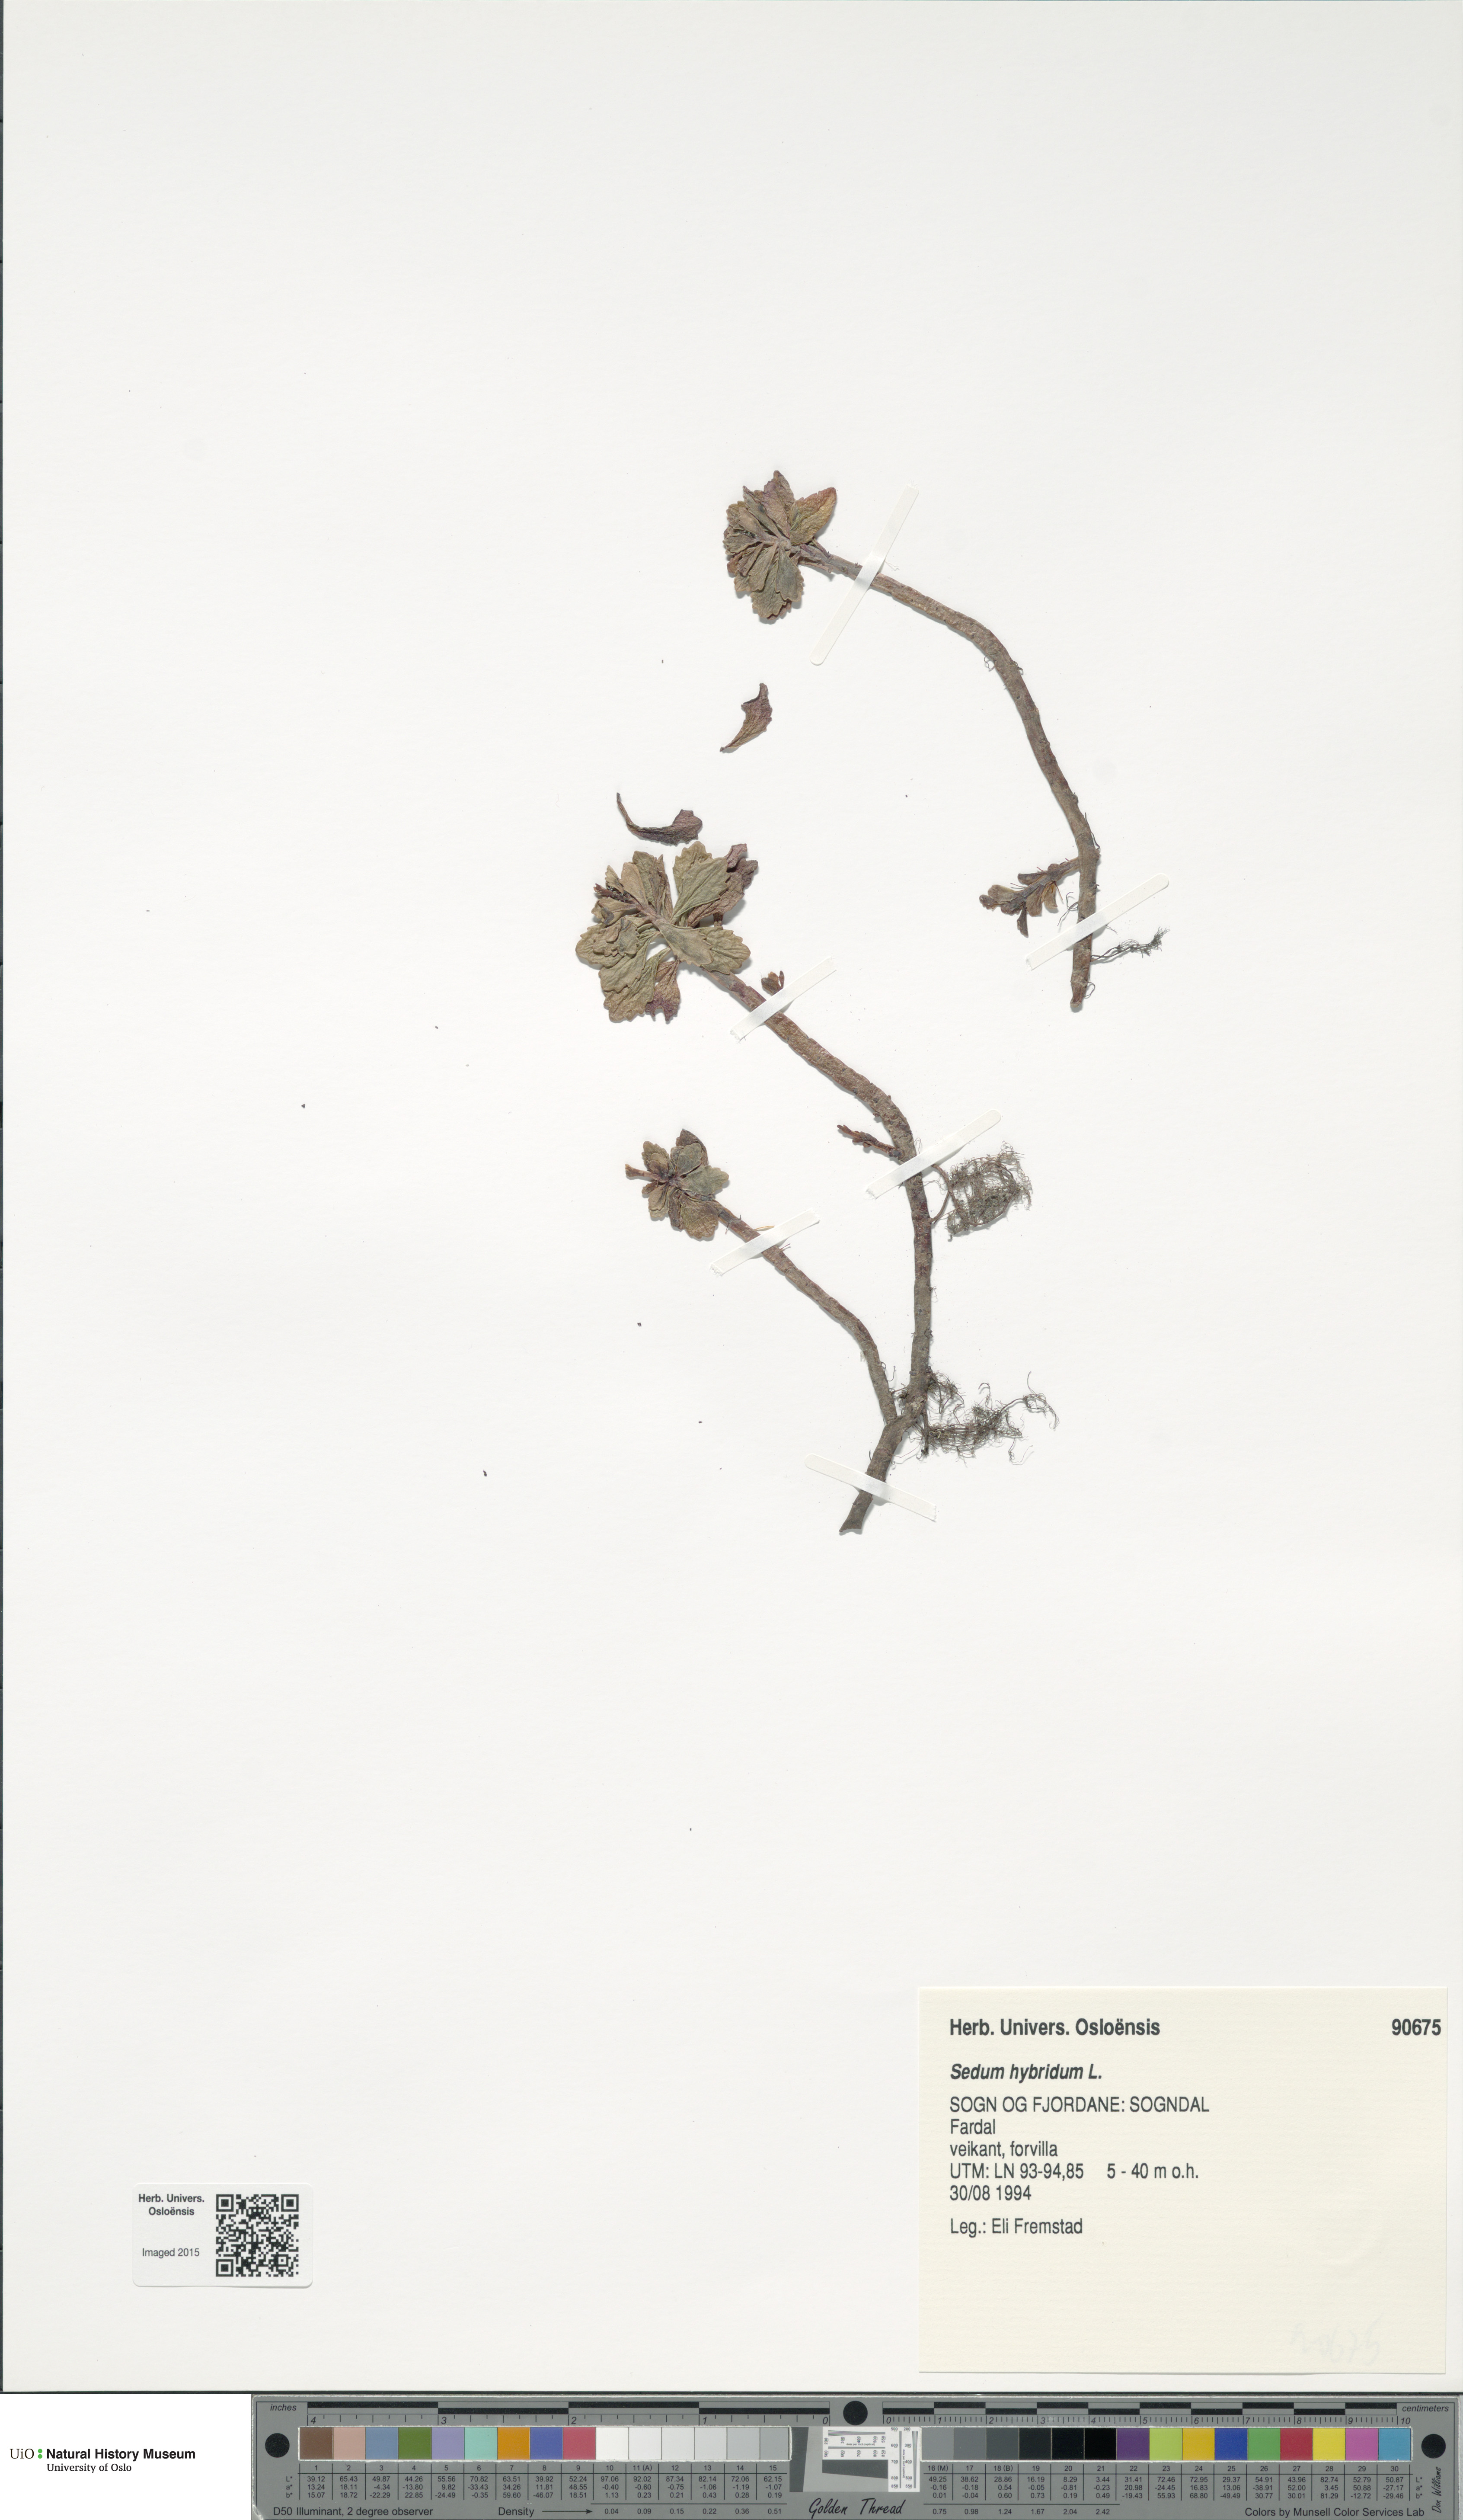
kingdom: Plantae
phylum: Tracheophyta
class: Magnoliopsida
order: Saxifragales
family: Crassulaceae
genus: Phedimus
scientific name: Phedimus hybridus
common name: Hybrid stonecrop
